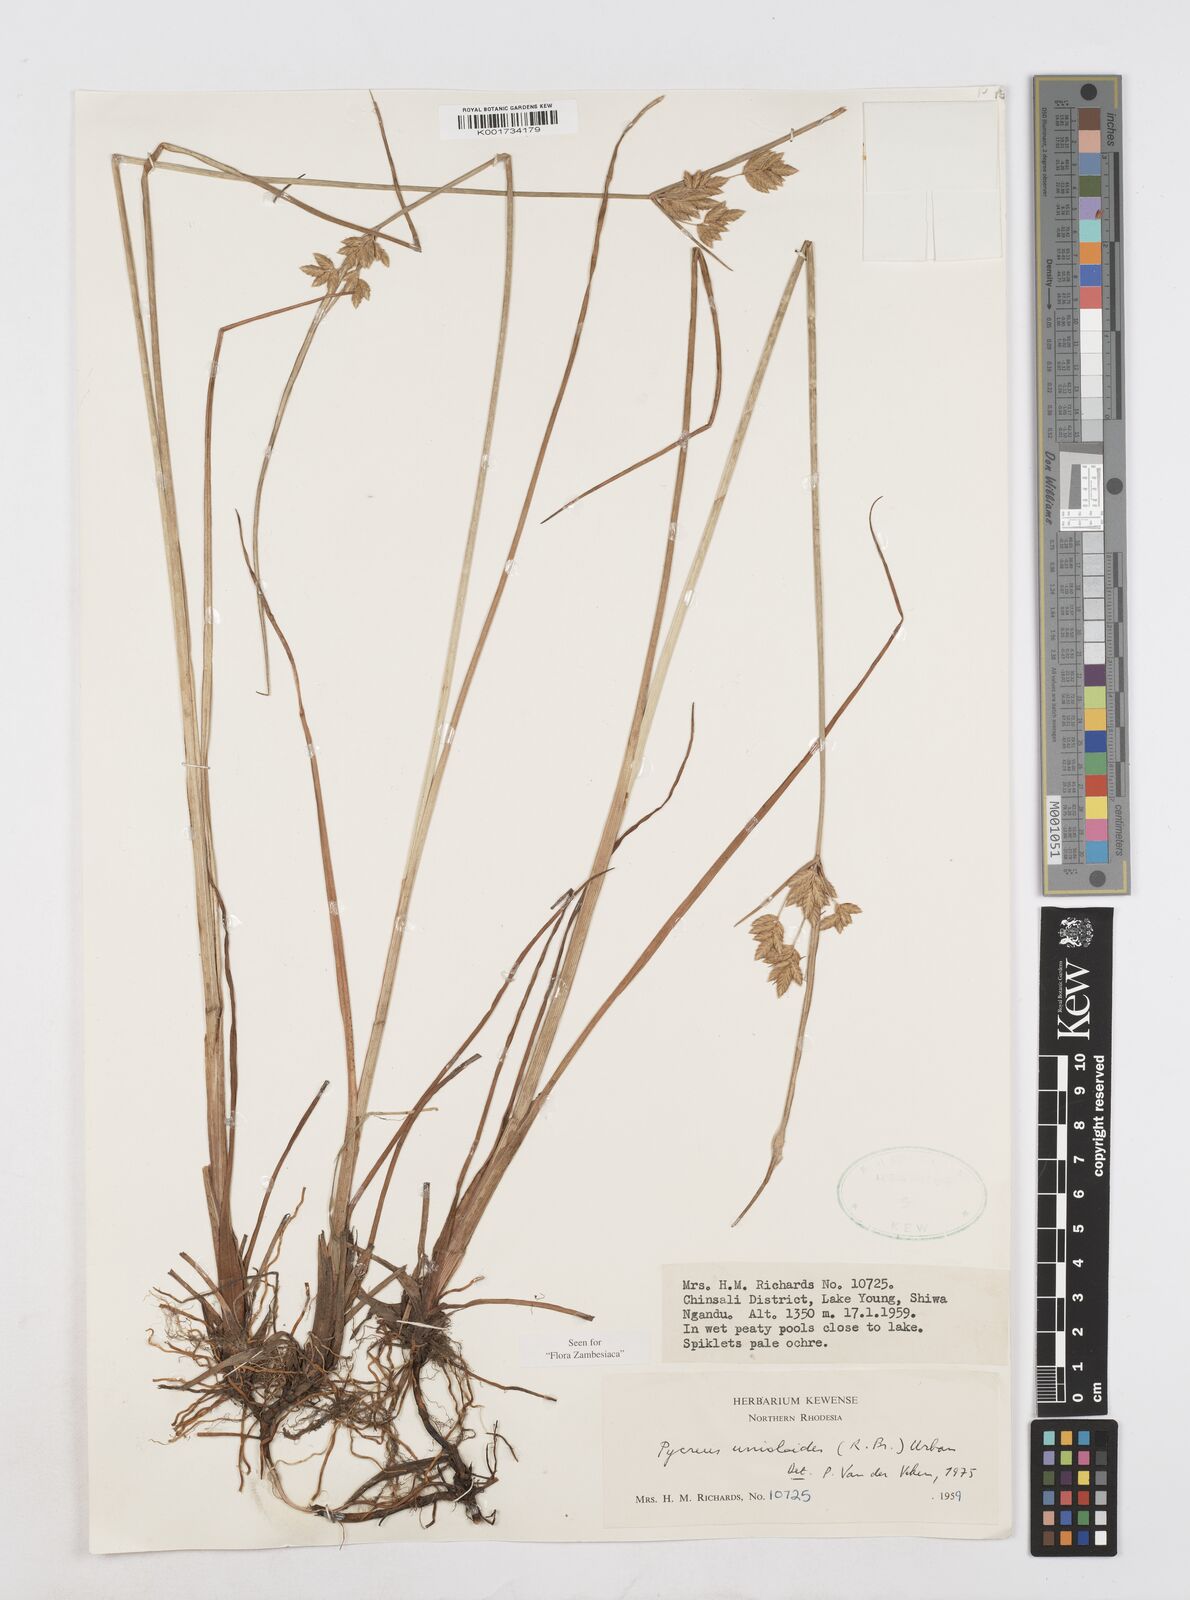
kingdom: Plantae
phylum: Tracheophyta
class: Liliopsida
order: Poales
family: Cyperaceae
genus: Cyperus
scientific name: Cyperus unioloides
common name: Uniola flatsedge
